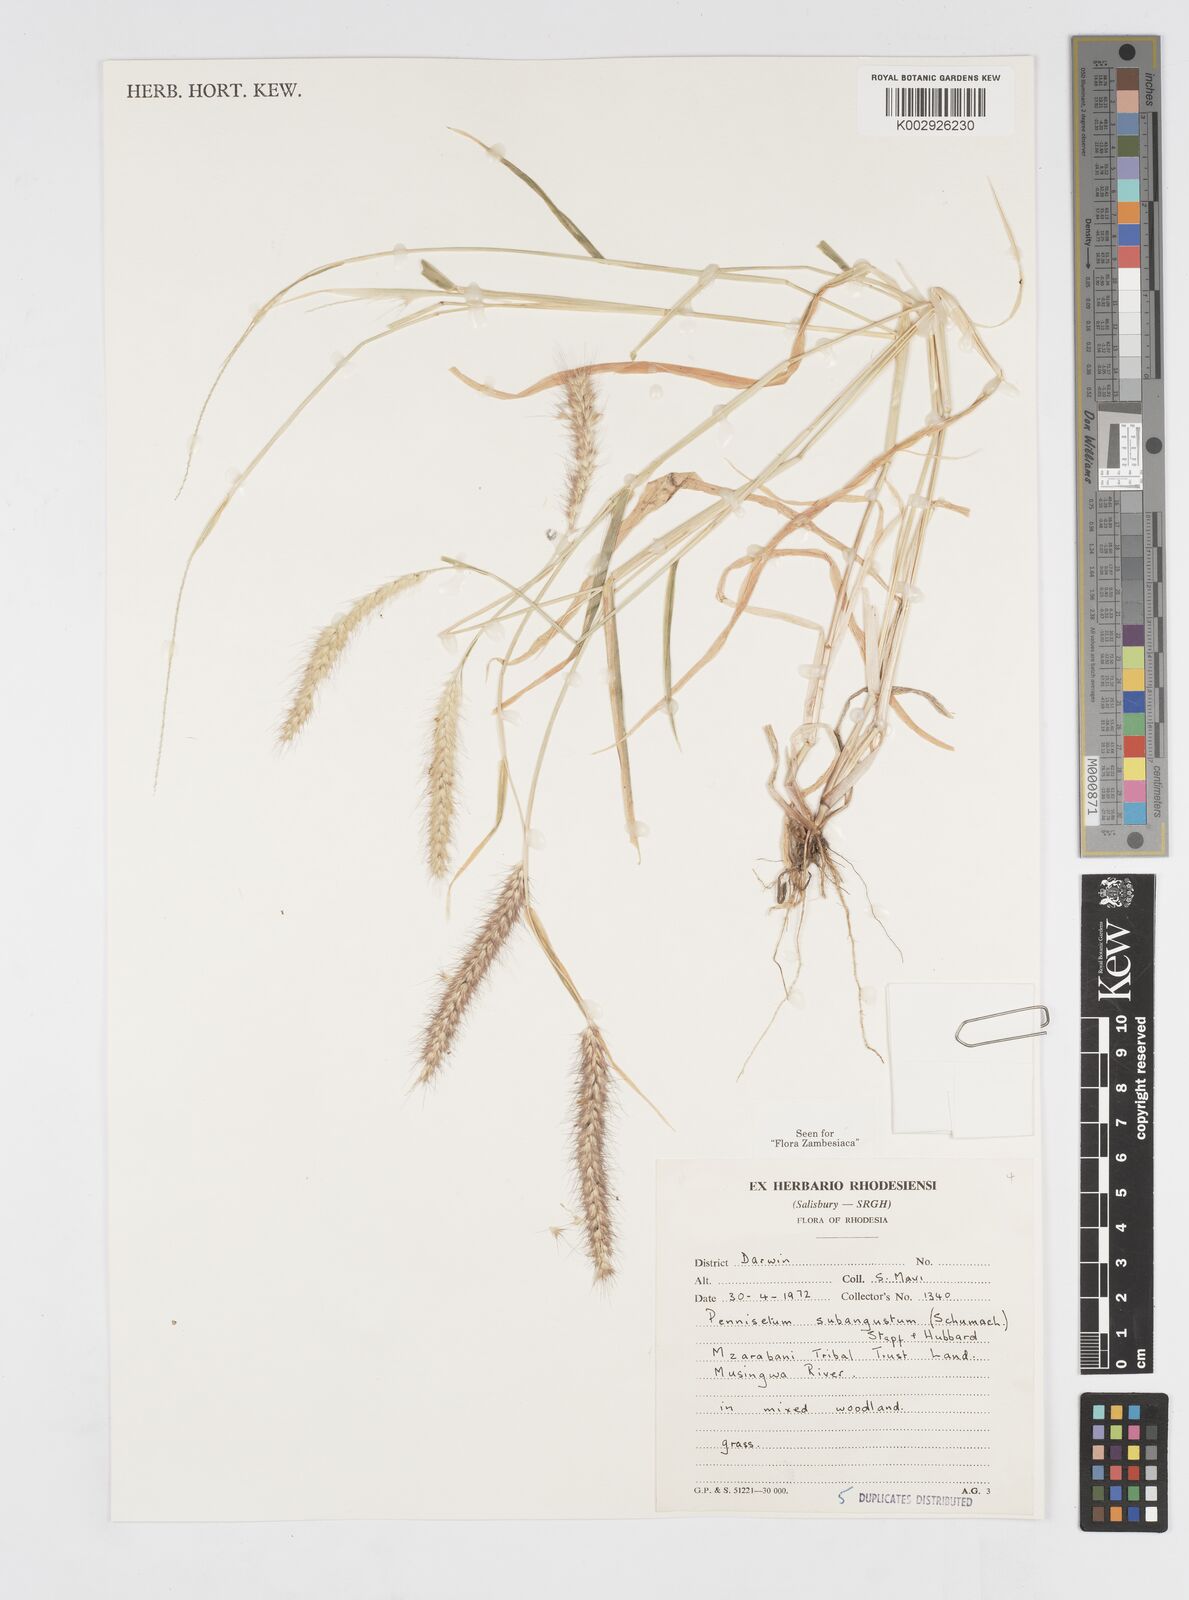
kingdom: Plantae
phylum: Tracheophyta
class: Liliopsida
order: Poales
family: Poaceae
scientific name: Poaceae
